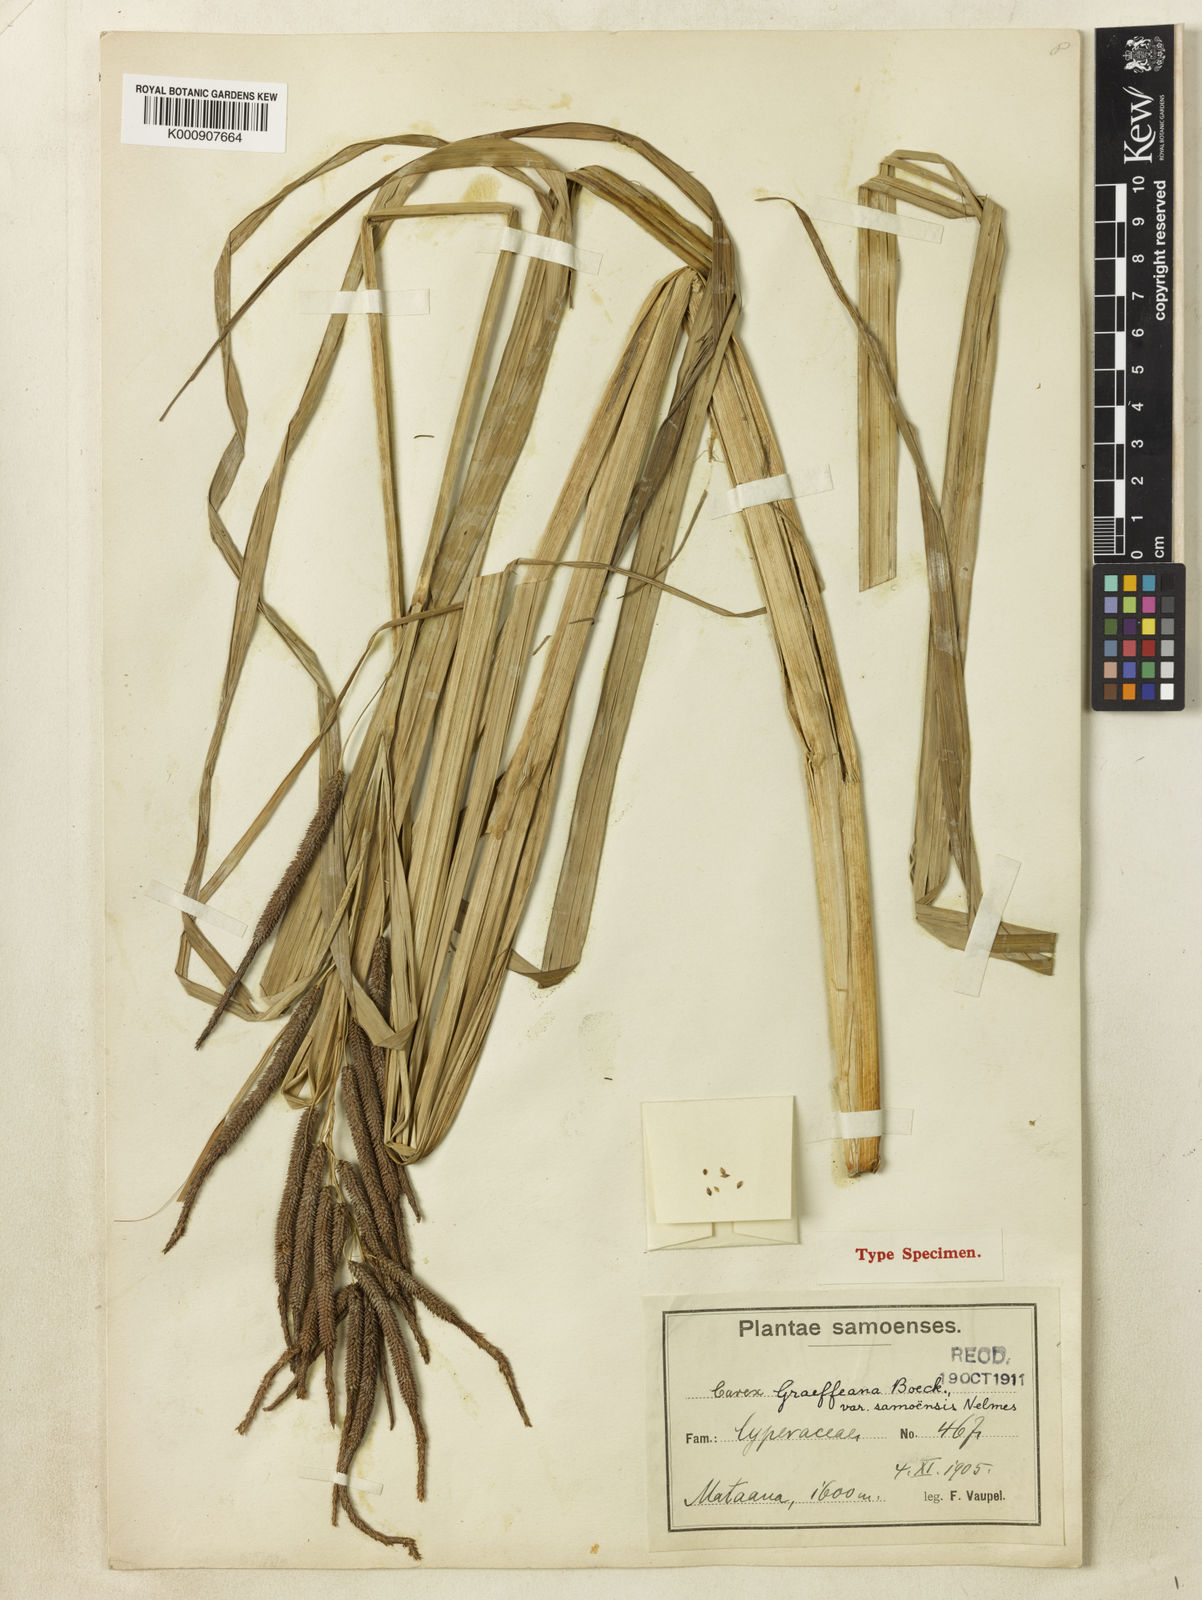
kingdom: Plantae
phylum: Tracheophyta
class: Liliopsida
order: Poales
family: Cyperaceae
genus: Carex
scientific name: Carex graeffeana
